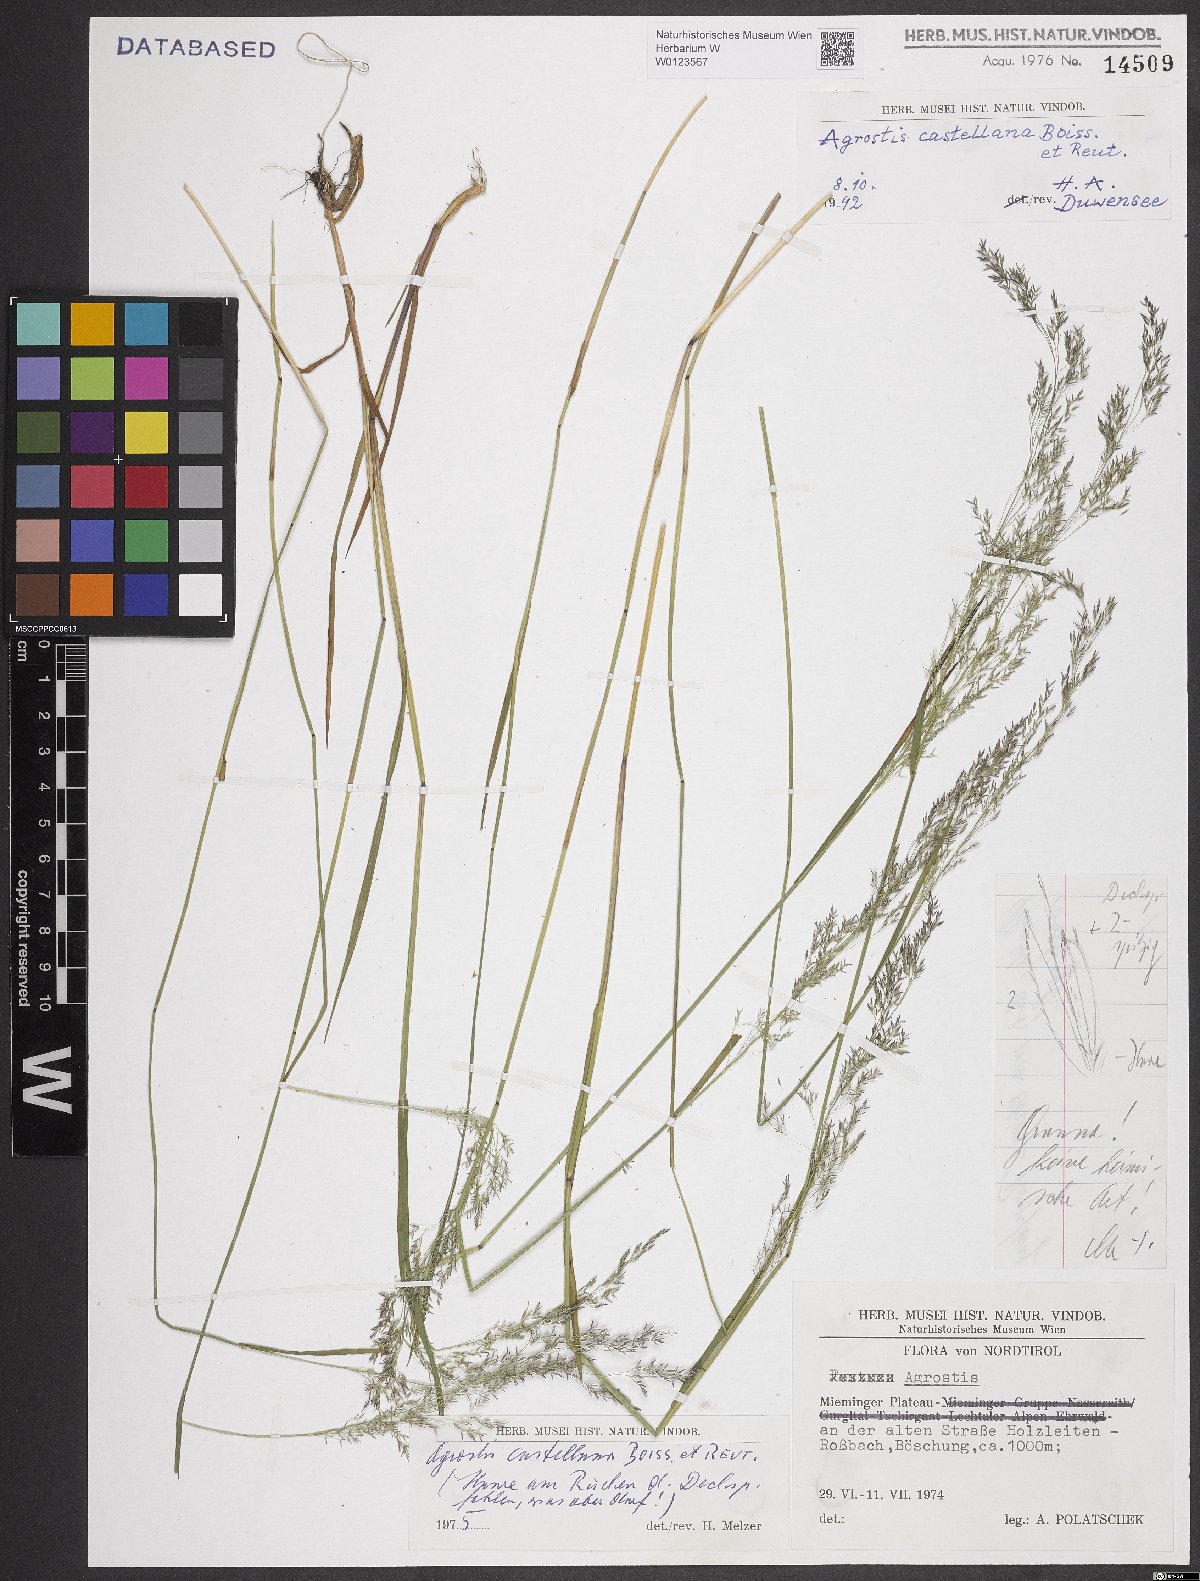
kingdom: Plantae
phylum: Tracheophyta
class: Liliopsida
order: Poales
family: Poaceae
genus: Agrostis
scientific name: Agrostis castellana
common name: Highland bent
